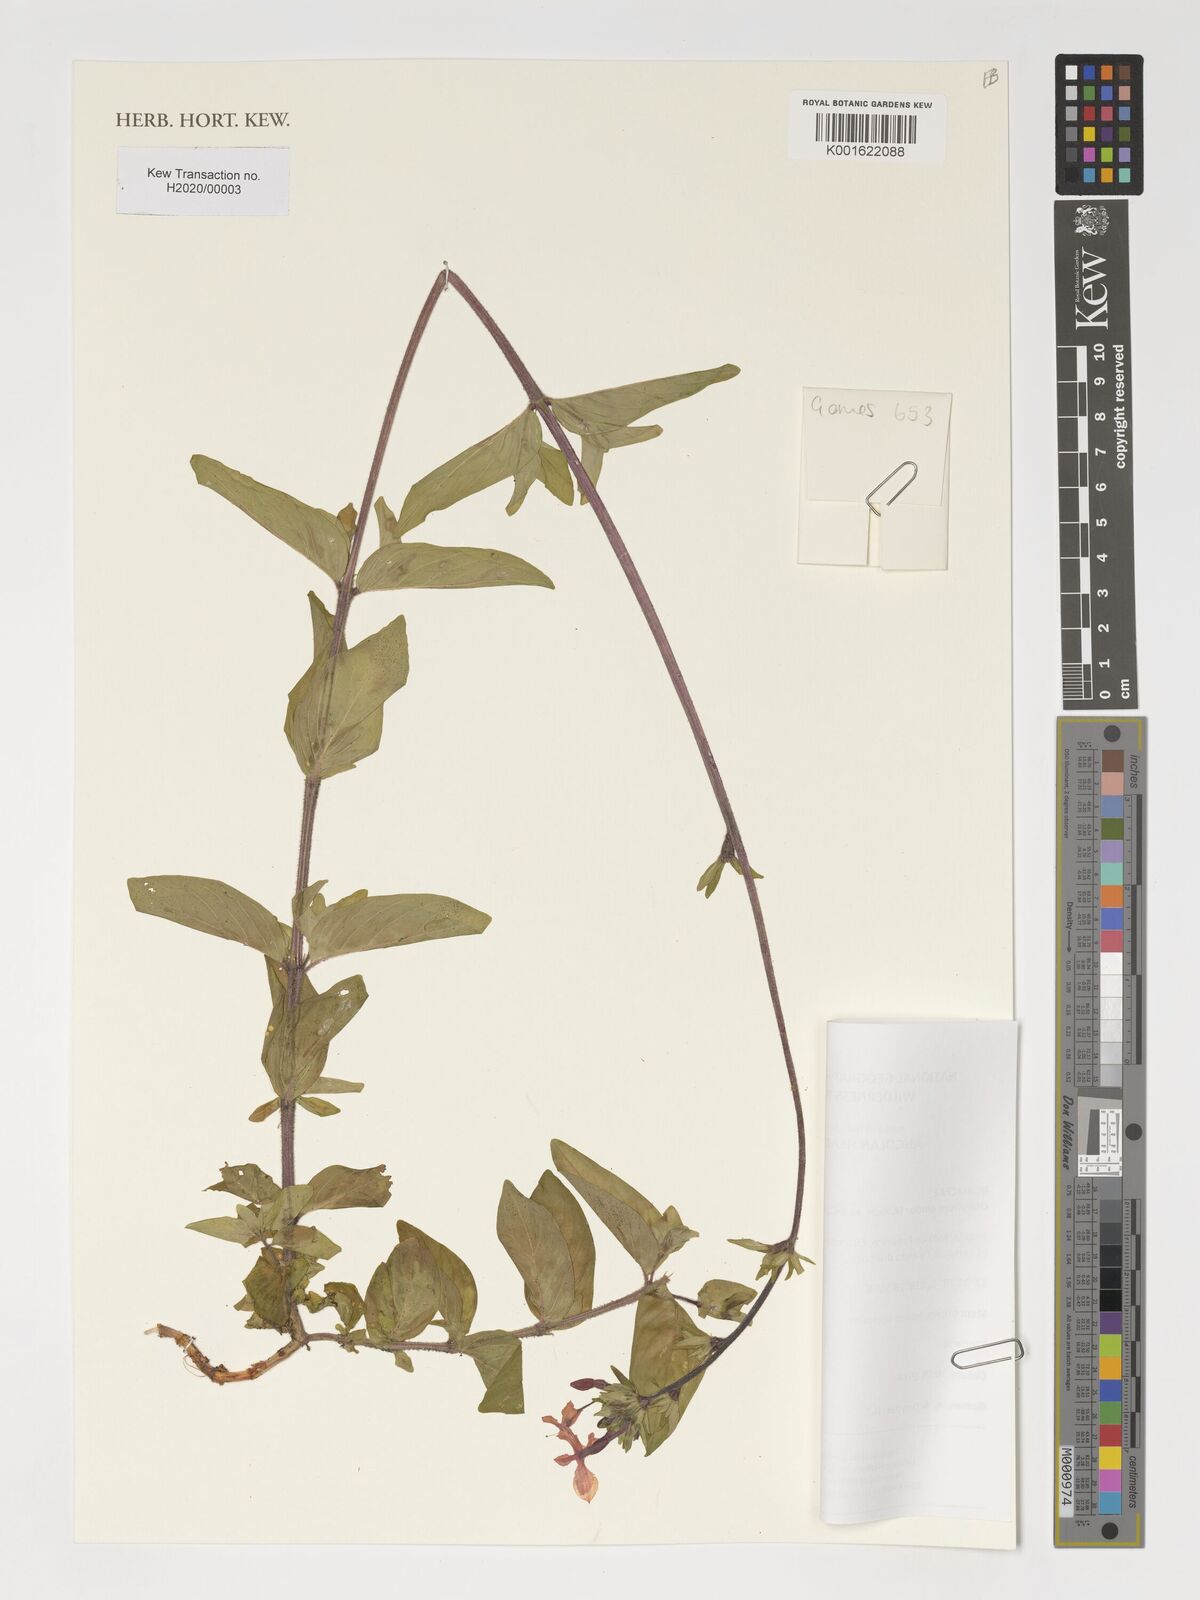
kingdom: Plantae
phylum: Tracheophyta
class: Magnoliopsida
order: Gentianales
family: Rubiaceae
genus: Otiophora
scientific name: Otiophora
